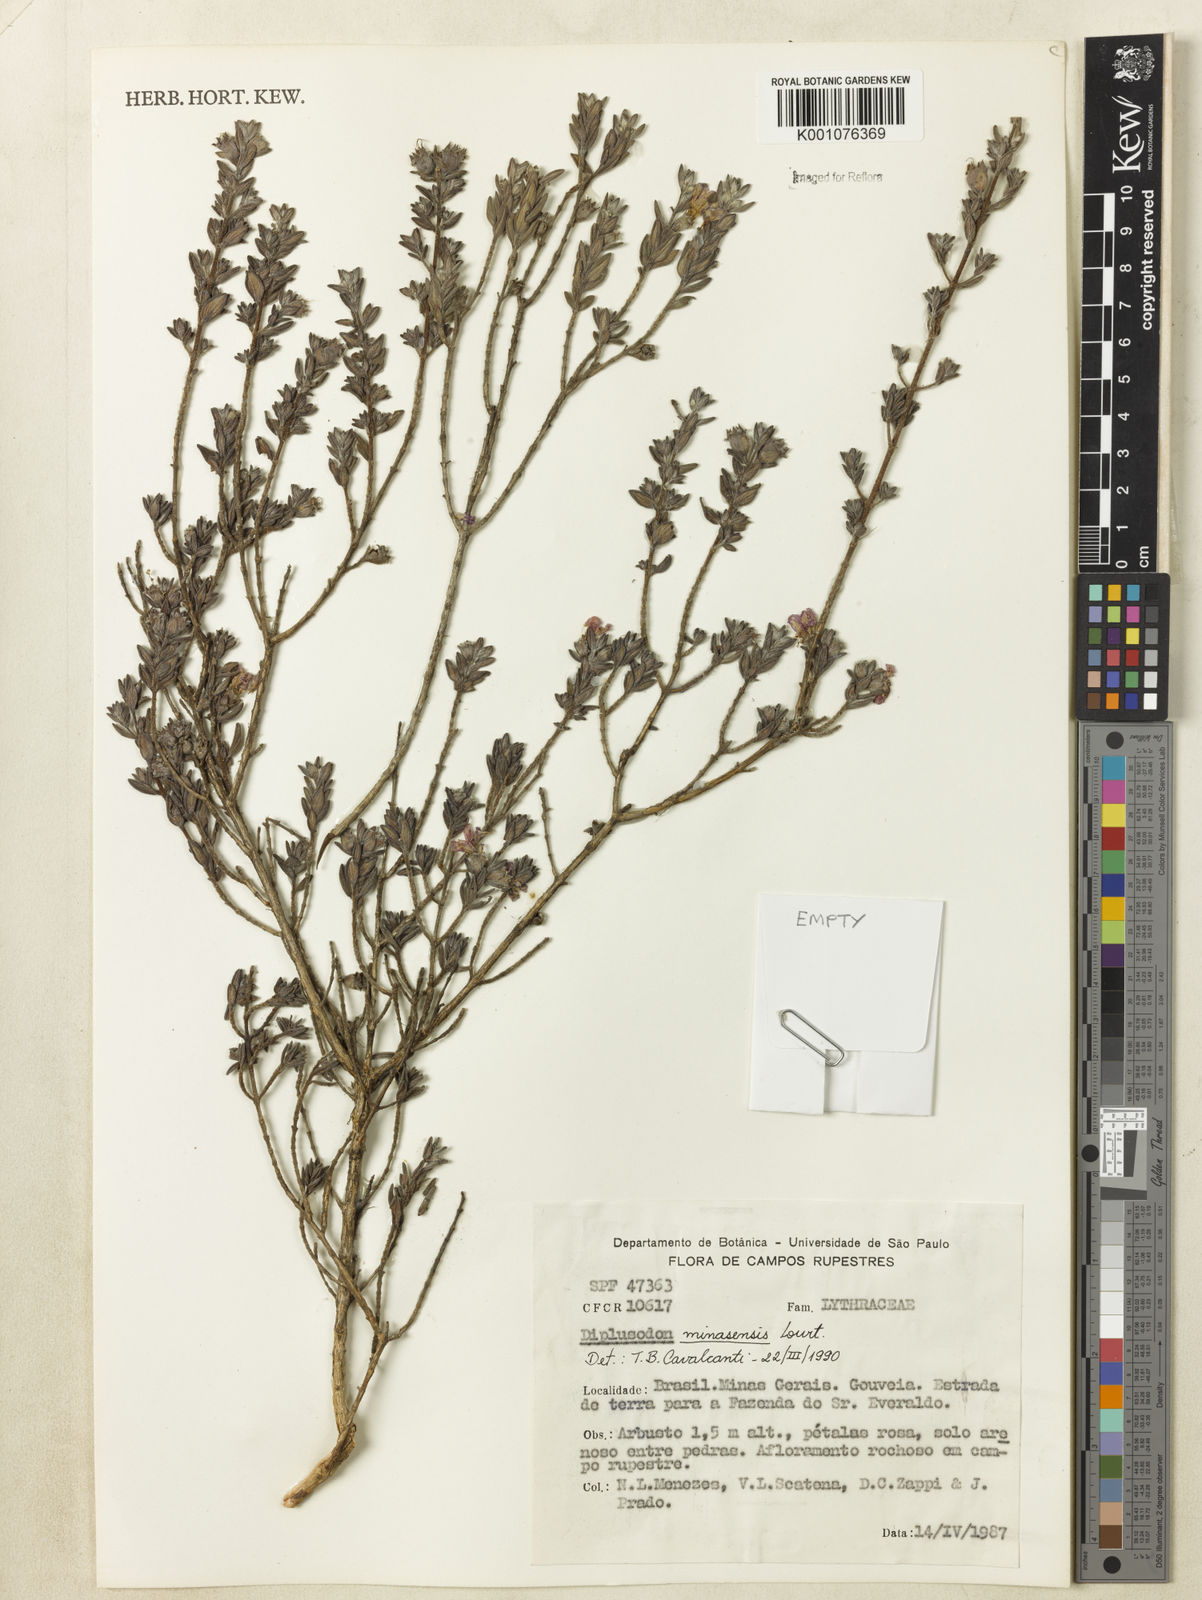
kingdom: Plantae
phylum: Tracheophyta
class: Magnoliopsida
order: Myrtales
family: Lythraceae
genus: Diplusodon
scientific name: Diplusodon minasensis
